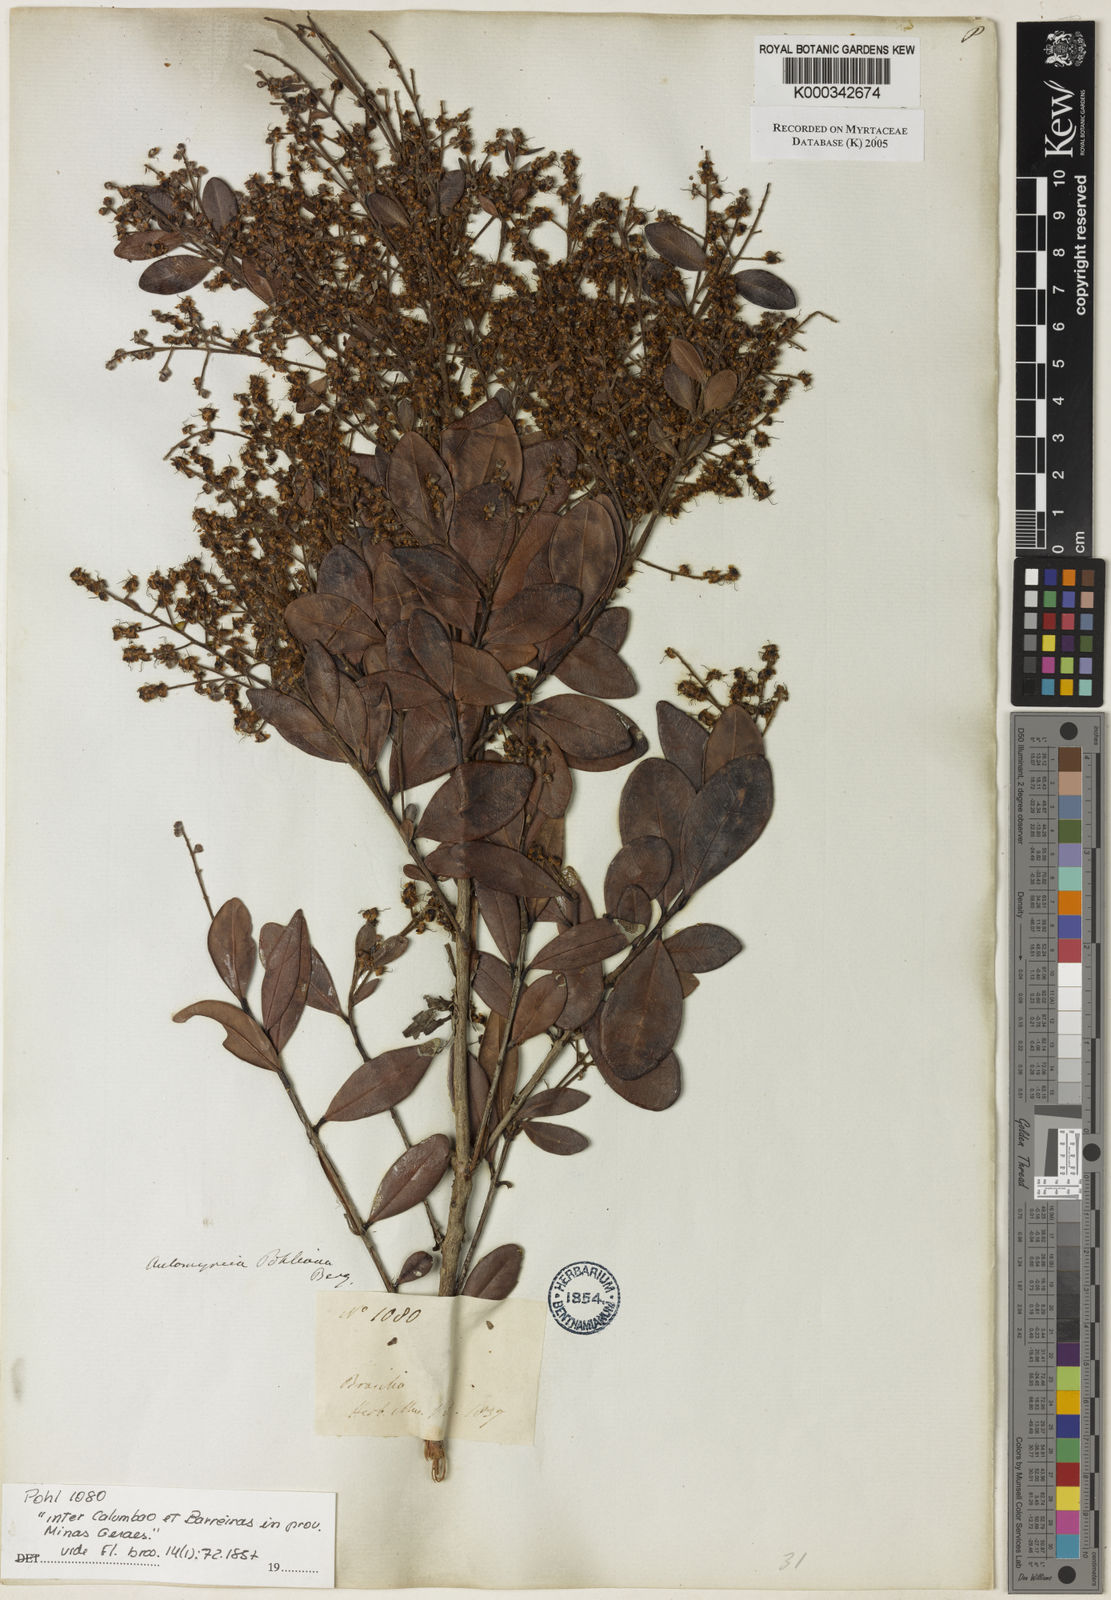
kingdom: Plantae
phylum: Tracheophyta
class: Magnoliopsida
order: Myrtales
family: Myrtaceae
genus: Myrcia
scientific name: Myrcia pubiflora
